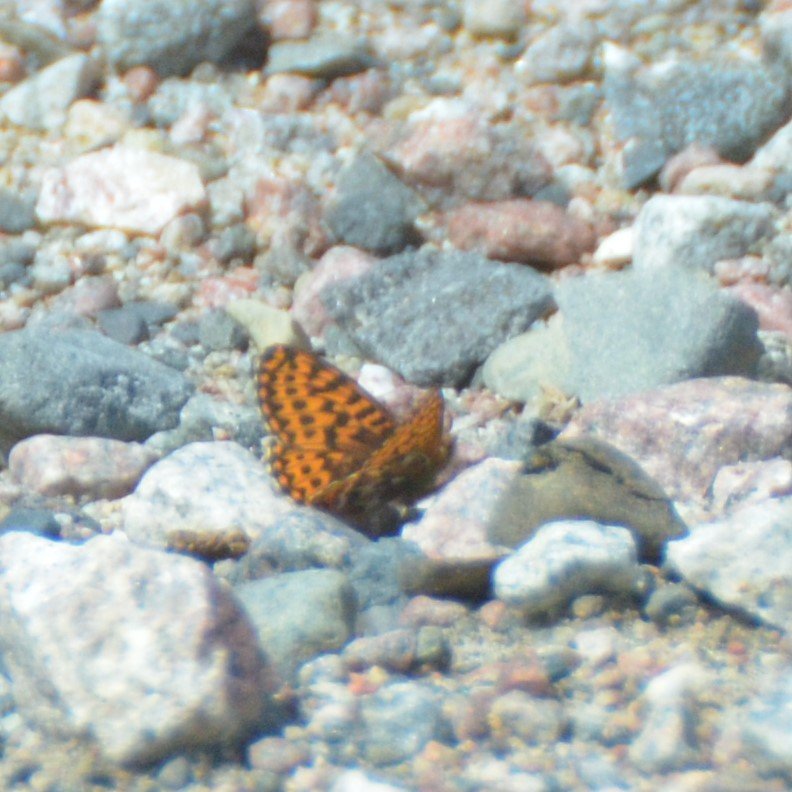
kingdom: Animalia
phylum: Arthropoda
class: Insecta
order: Lepidoptera
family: Nymphalidae
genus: Boloria
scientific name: Boloria freija
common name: Freija Fritillary
